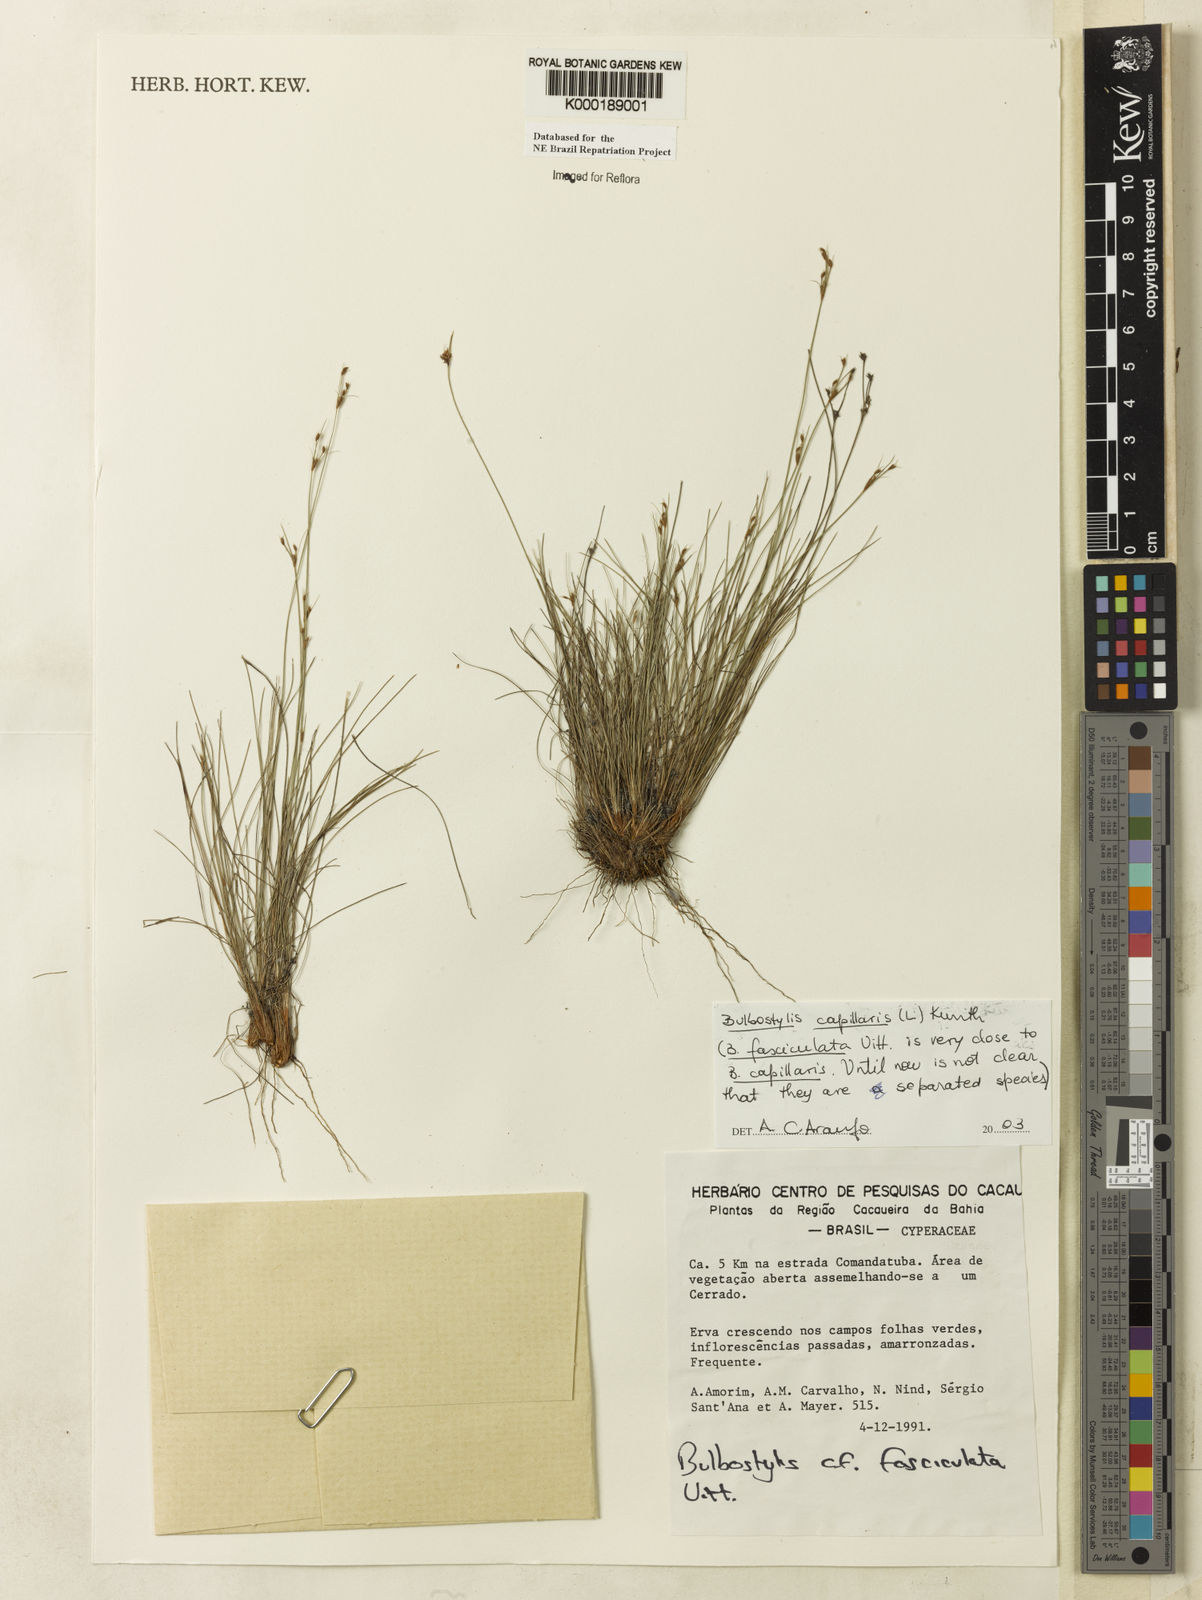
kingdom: Plantae
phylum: Tracheophyta
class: Liliopsida
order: Poales
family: Cyperaceae
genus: Bulbostylis
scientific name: Bulbostylis capillaris
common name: Densetuft hairsedge
